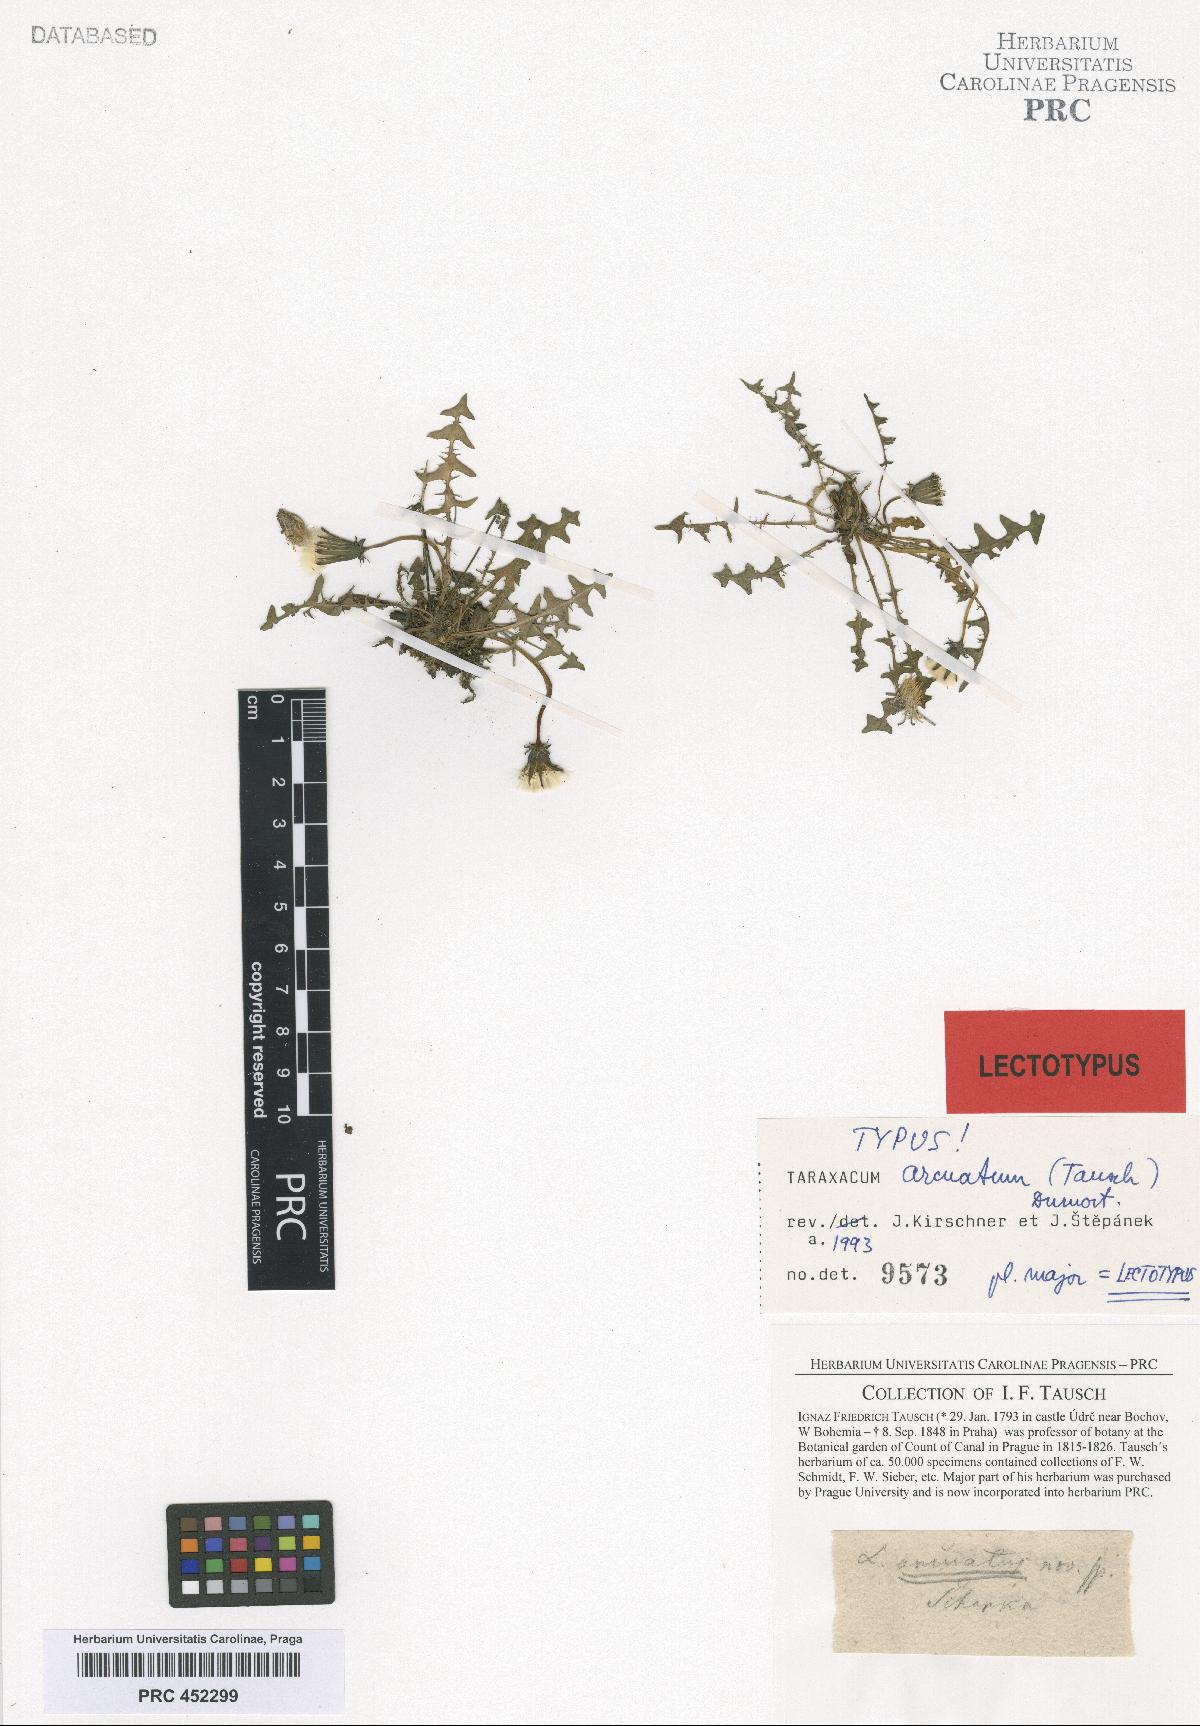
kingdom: Plantae
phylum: Tracheophyta
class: Magnoliopsida
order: Asterales
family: Asteraceae
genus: Taraxacum
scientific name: Taraxacum arcuatum
